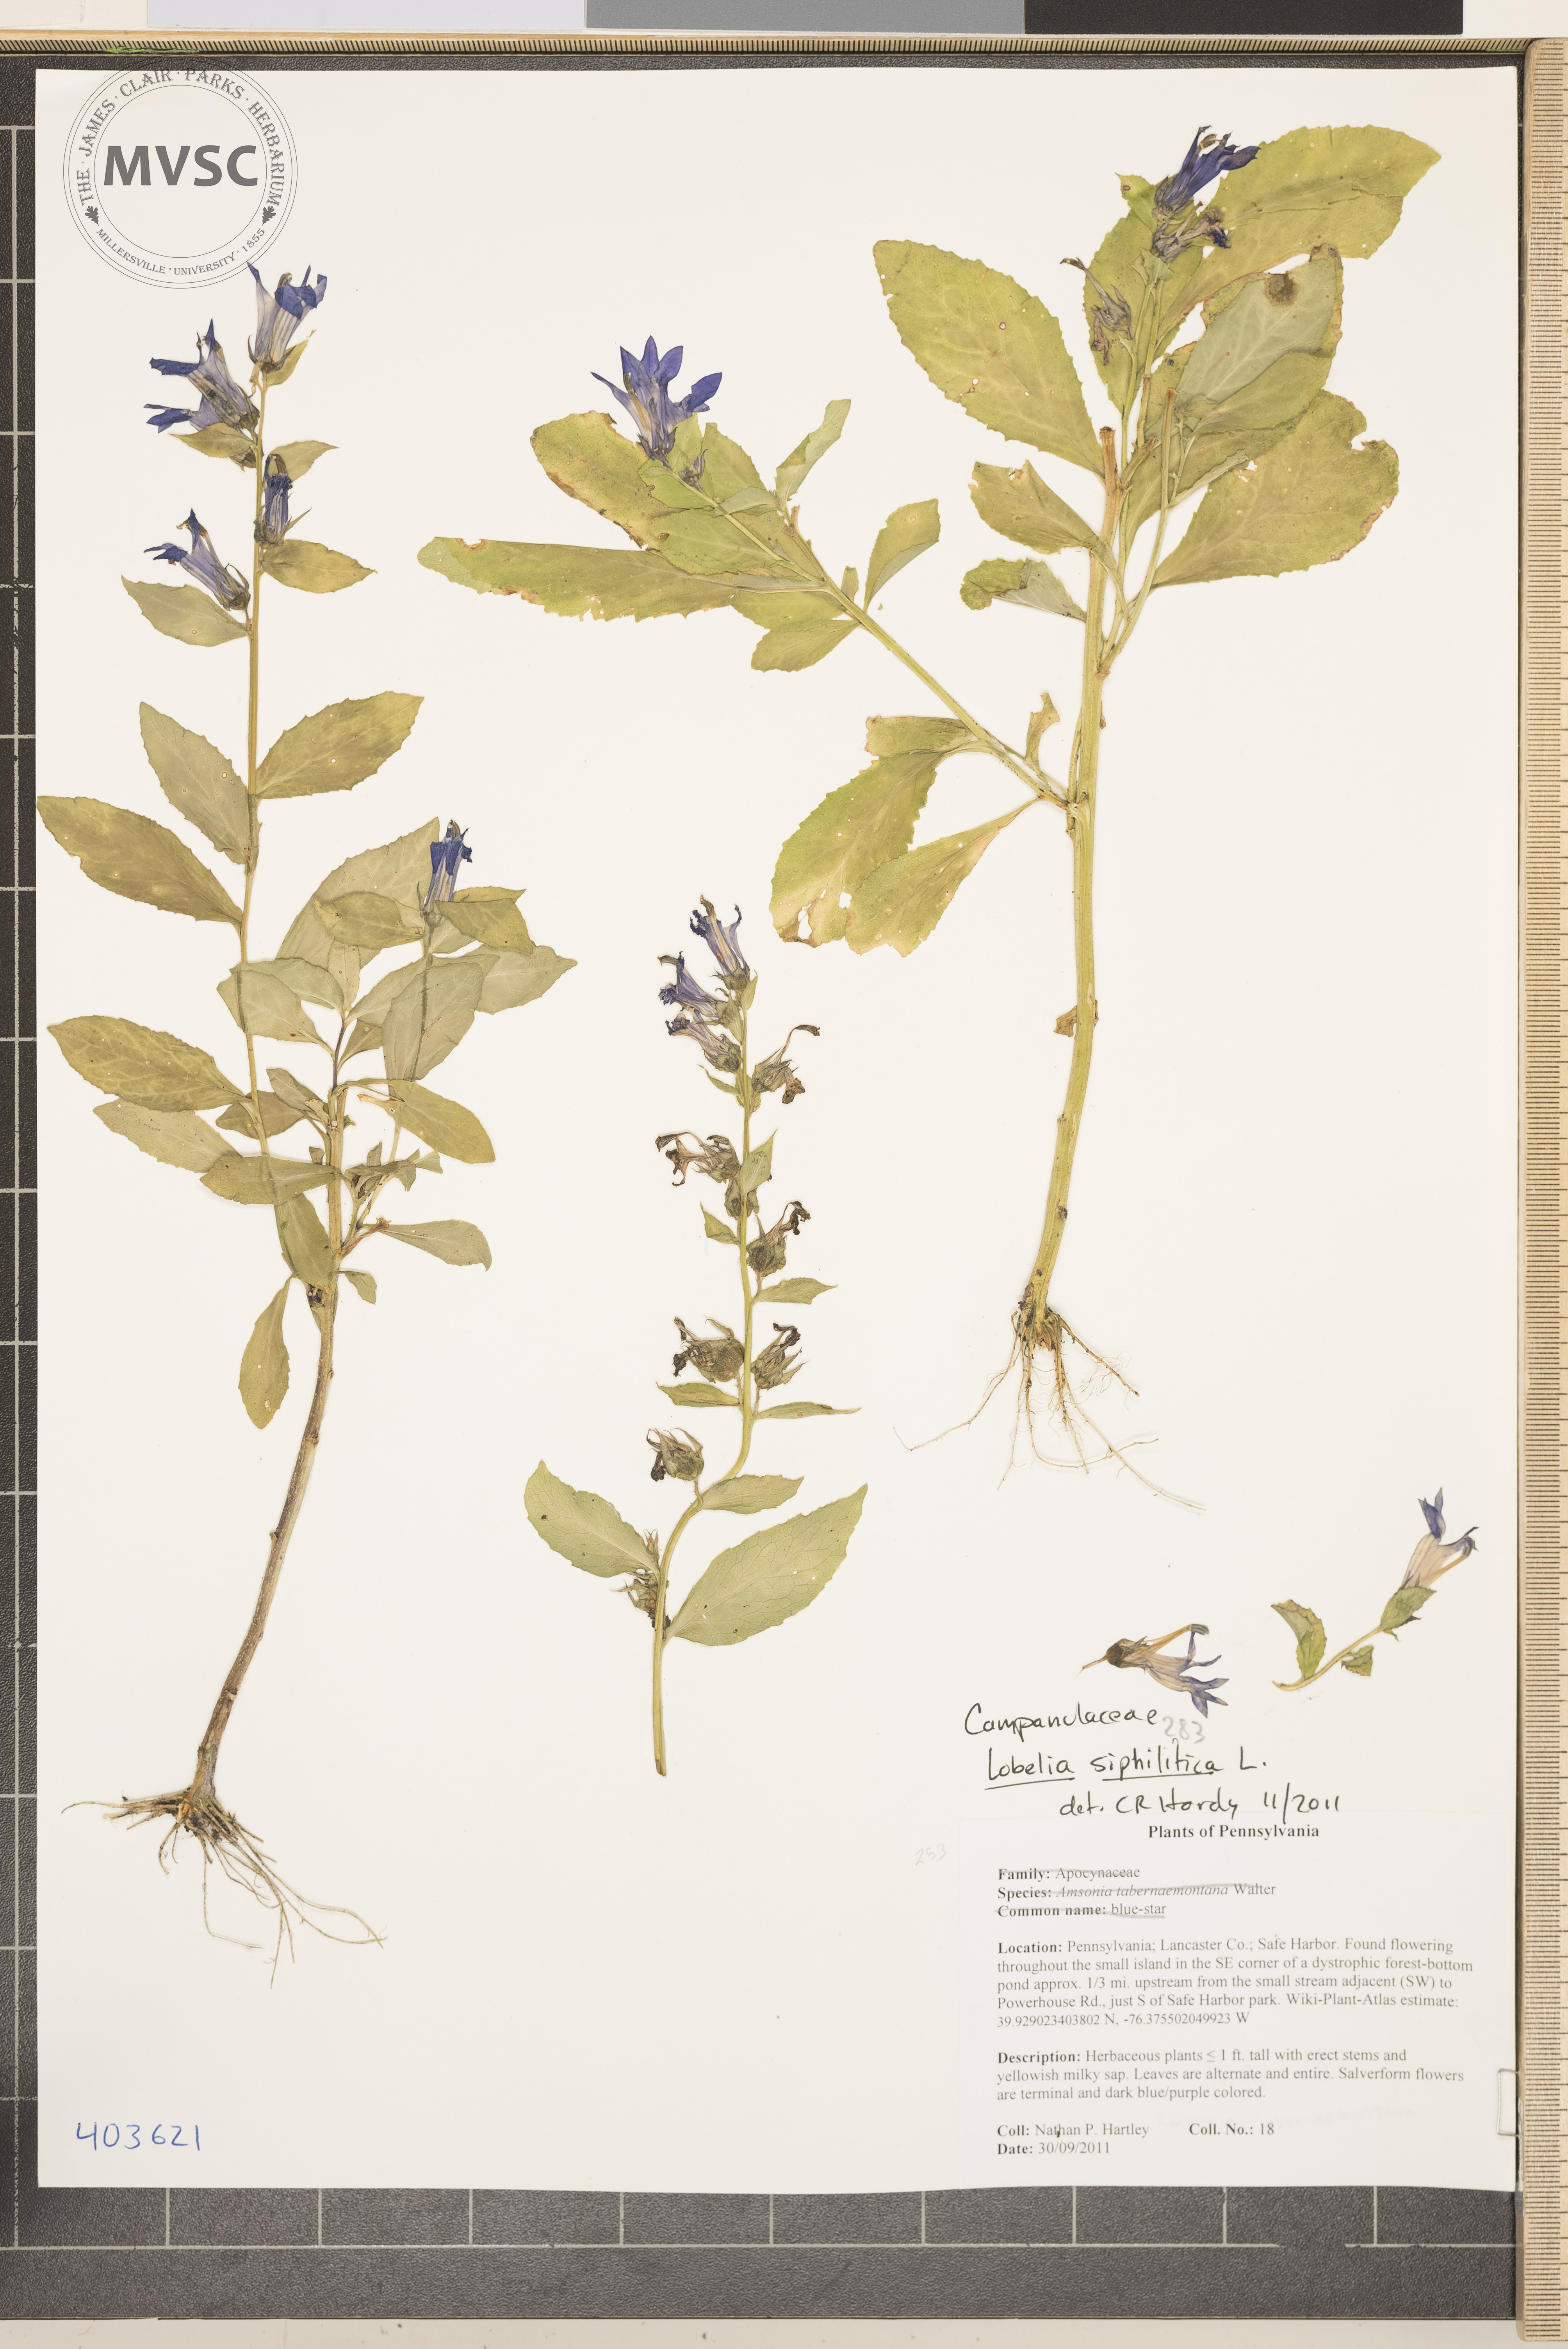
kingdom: Plantae
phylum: Tracheophyta
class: Magnoliopsida
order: Asterales
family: Campanulaceae
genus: Lobelia
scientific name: Lobelia siphilitica
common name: Great lobelia
